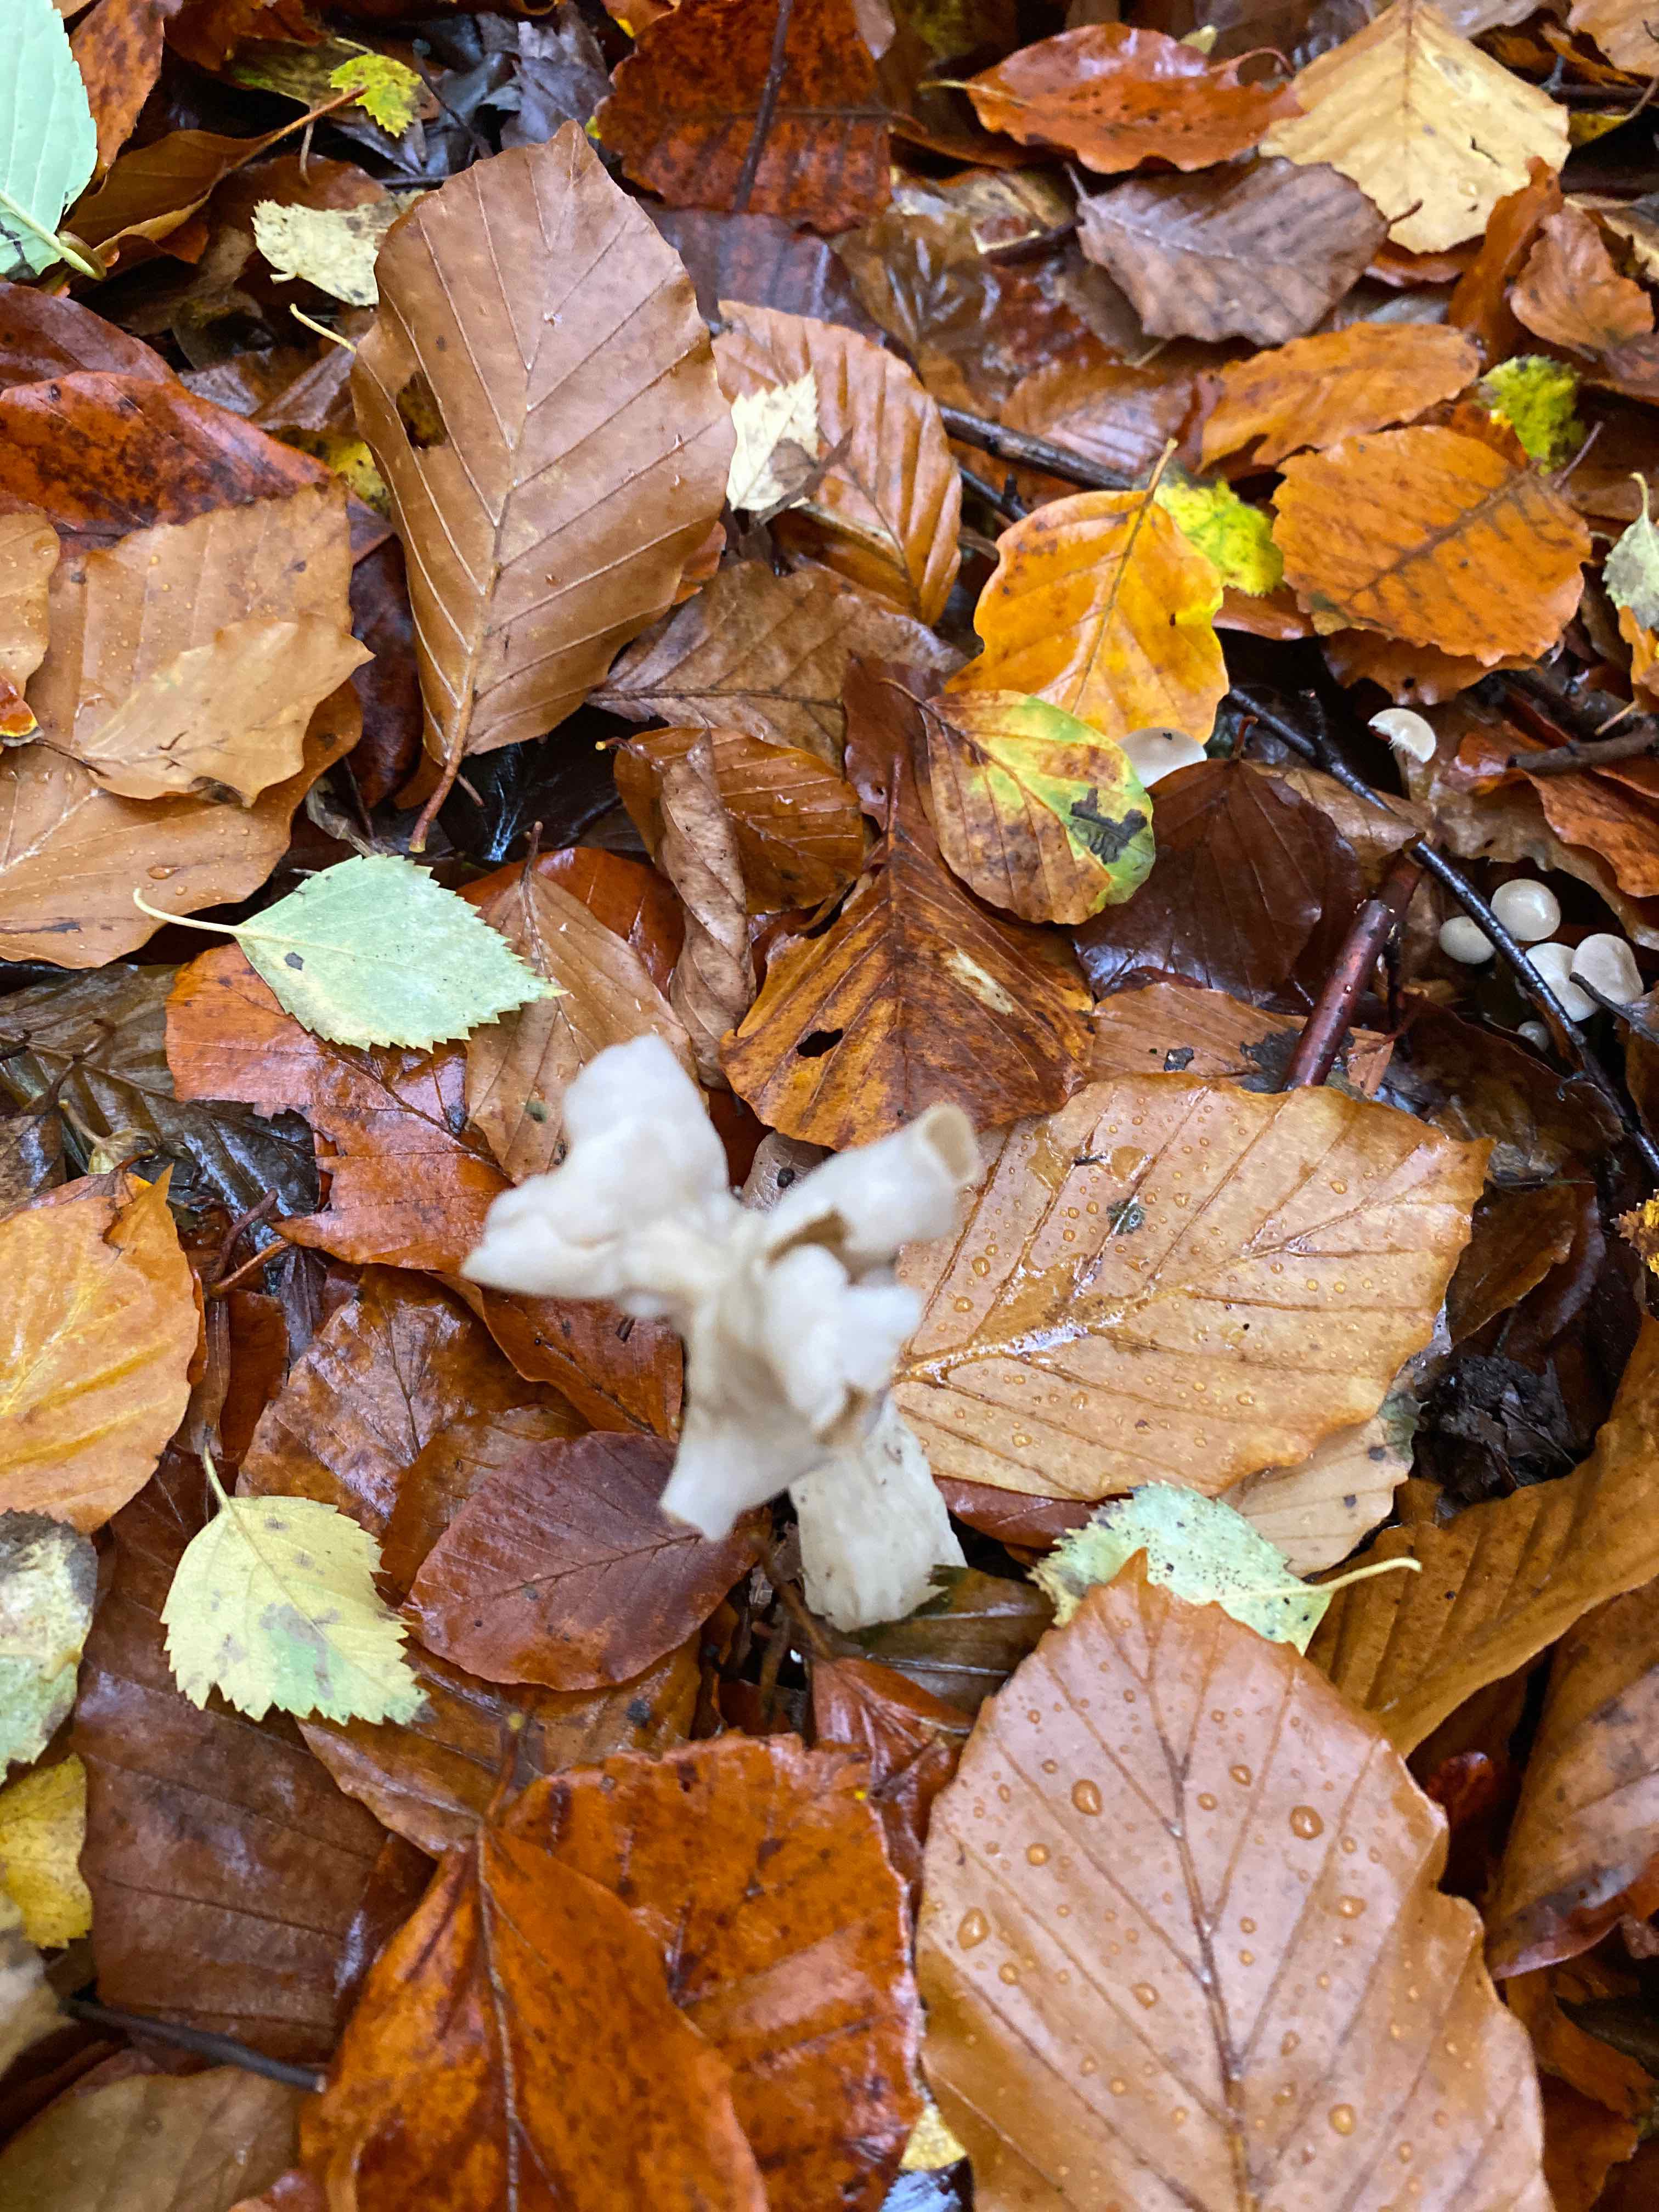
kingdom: Fungi
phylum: Ascomycota
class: Pezizomycetes
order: Pezizales
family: Helvellaceae
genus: Helvella
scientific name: Helvella crispa
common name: kruset foldhat
